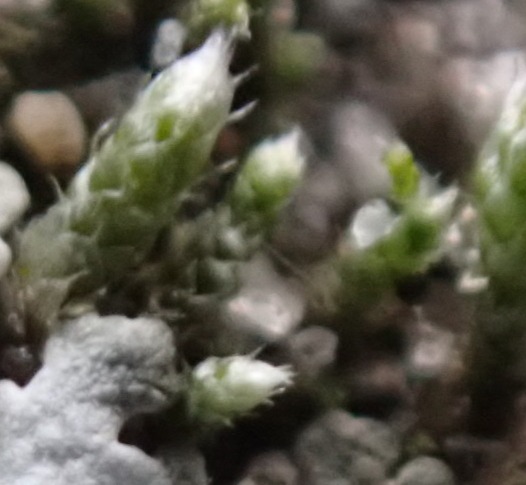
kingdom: Plantae
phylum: Bryophyta
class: Bryopsida
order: Bryales
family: Bryaceae
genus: Bryum
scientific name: Bryum argenteum
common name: Sølv-bryum
